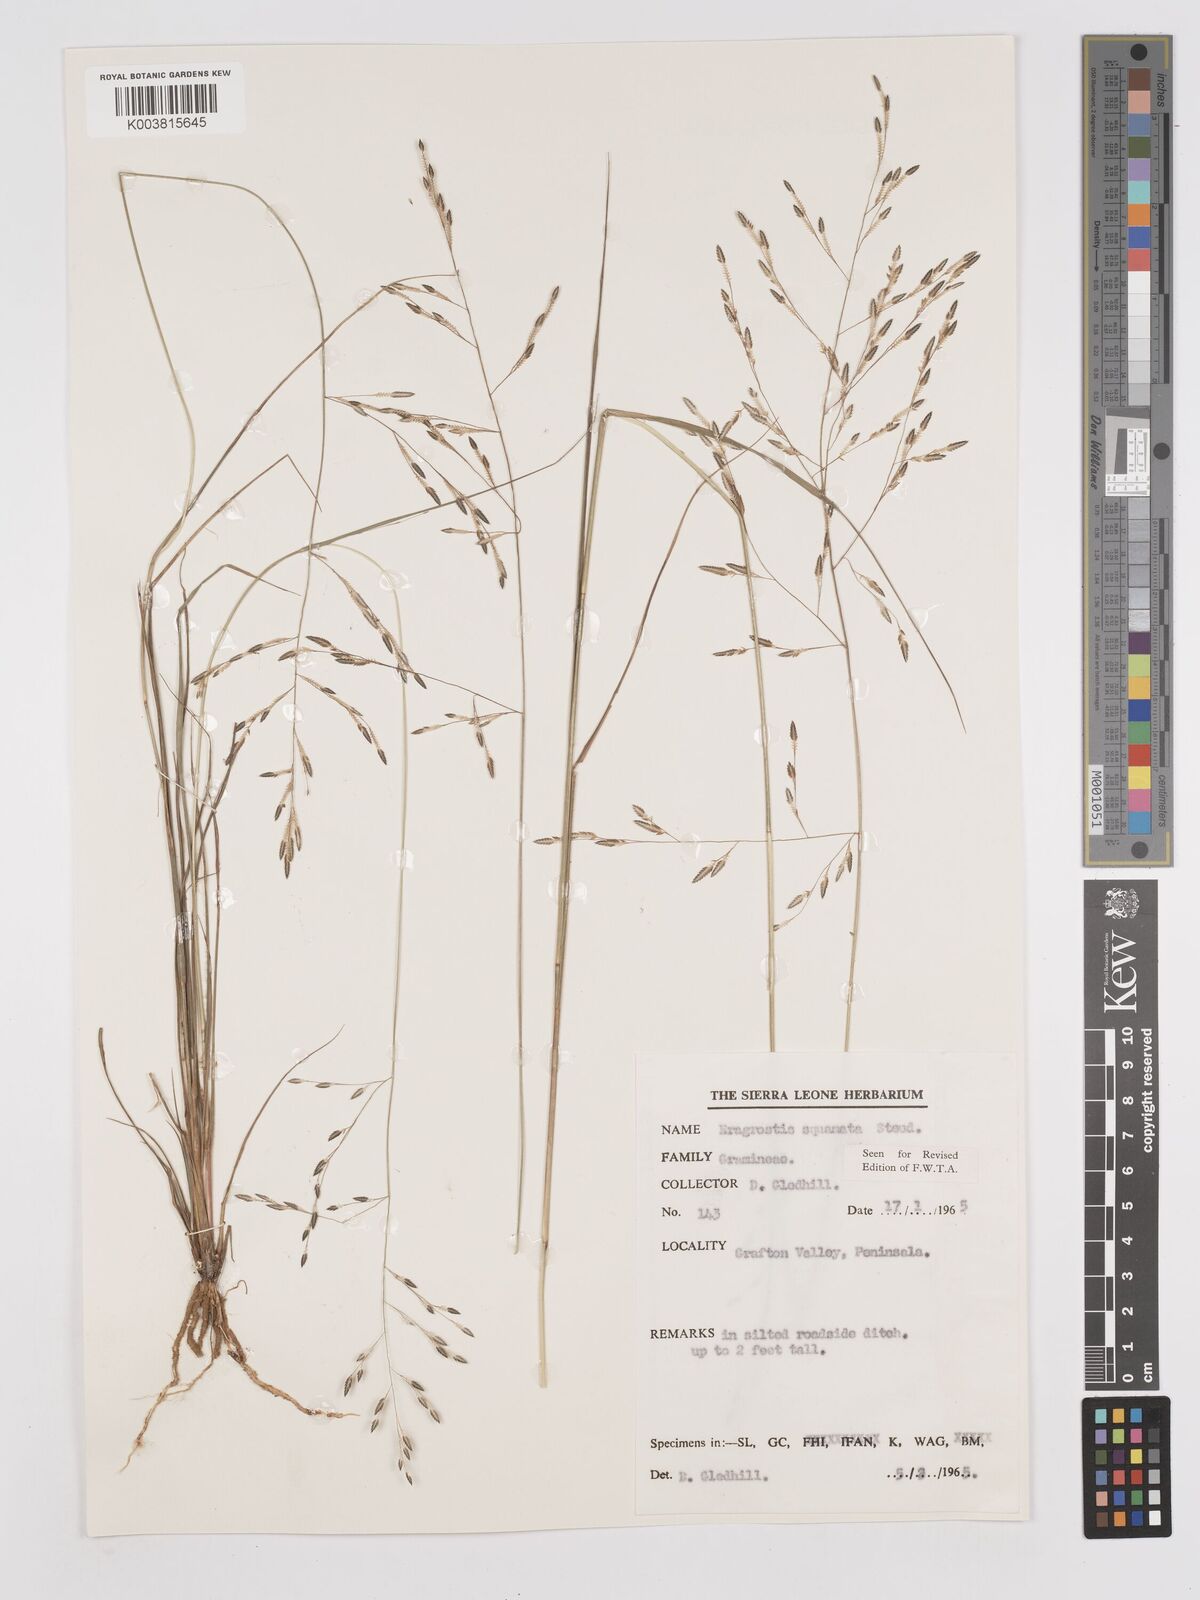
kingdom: Plantae
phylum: Tracheophyta
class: Liliopsida
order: Poales
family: Poaceae
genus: Eragrostis
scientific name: Eragrostis squamata
